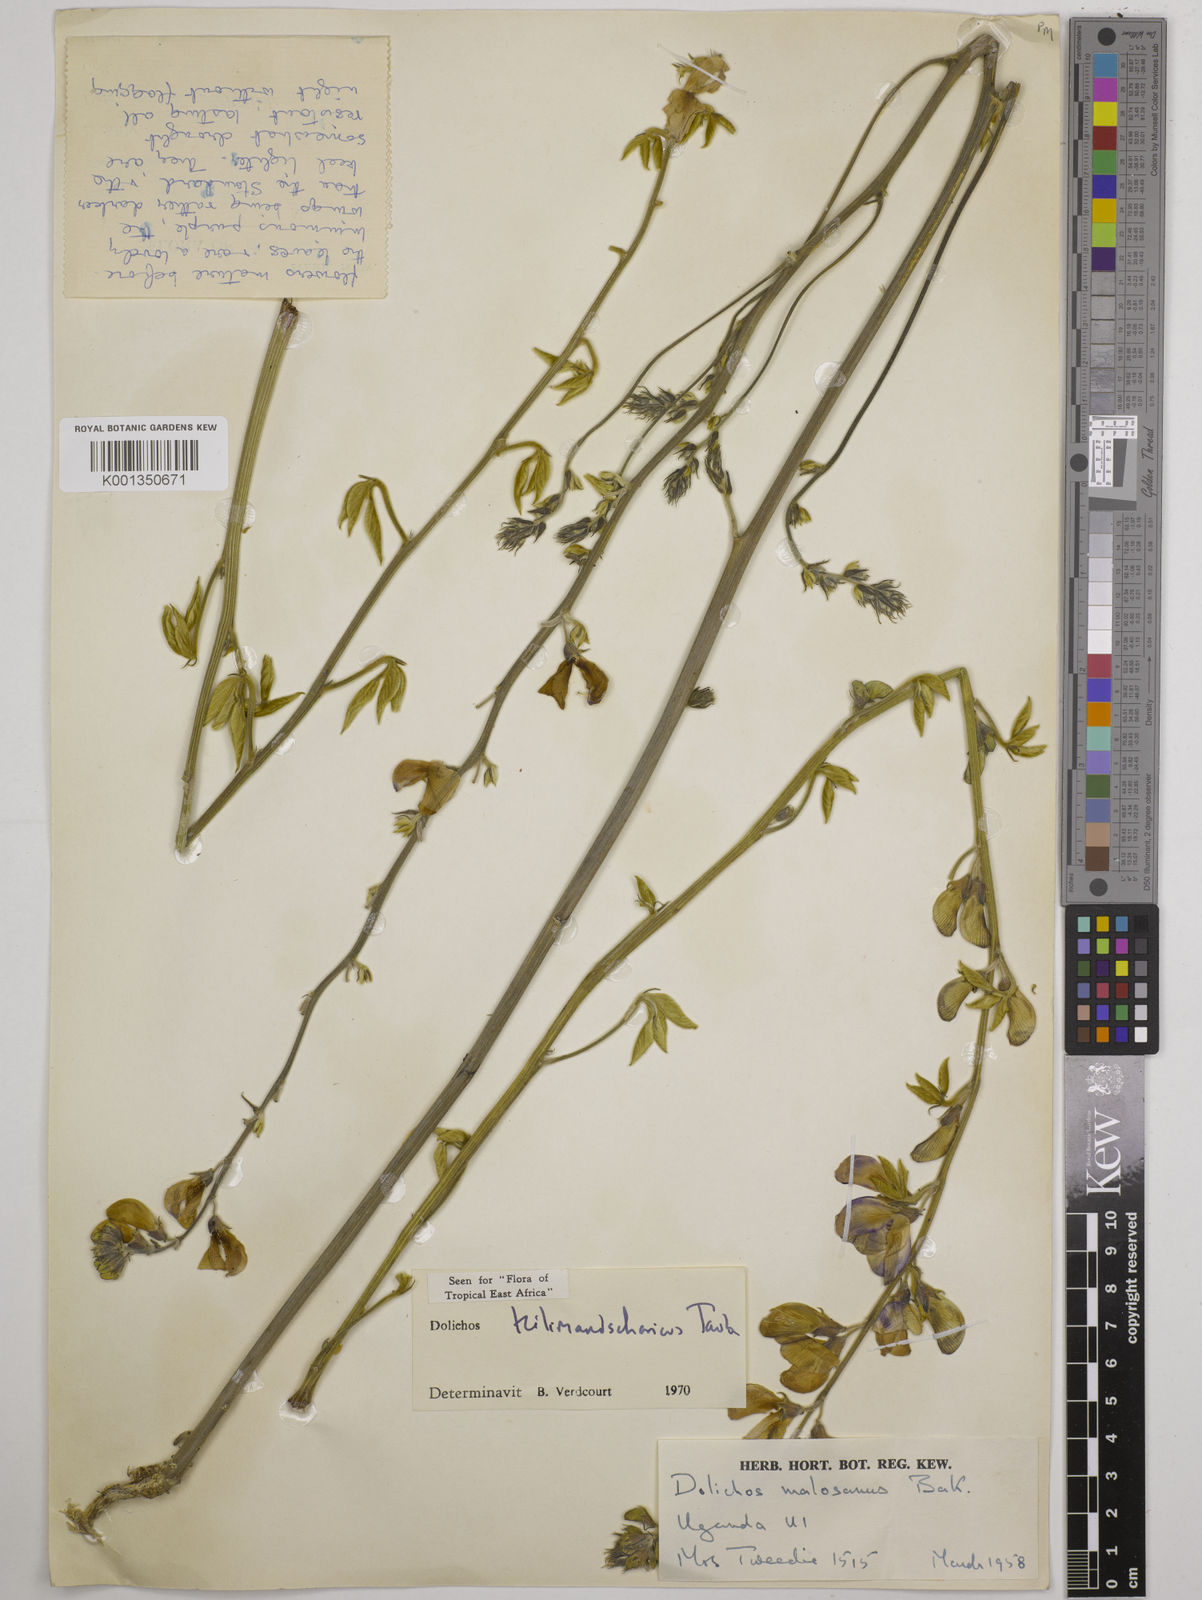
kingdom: Plantae
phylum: Tracheophyta
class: Magnoliopsida
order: Fabales
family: Fabaceae
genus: Dolichos
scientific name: Dolichos kilimandscharicus
